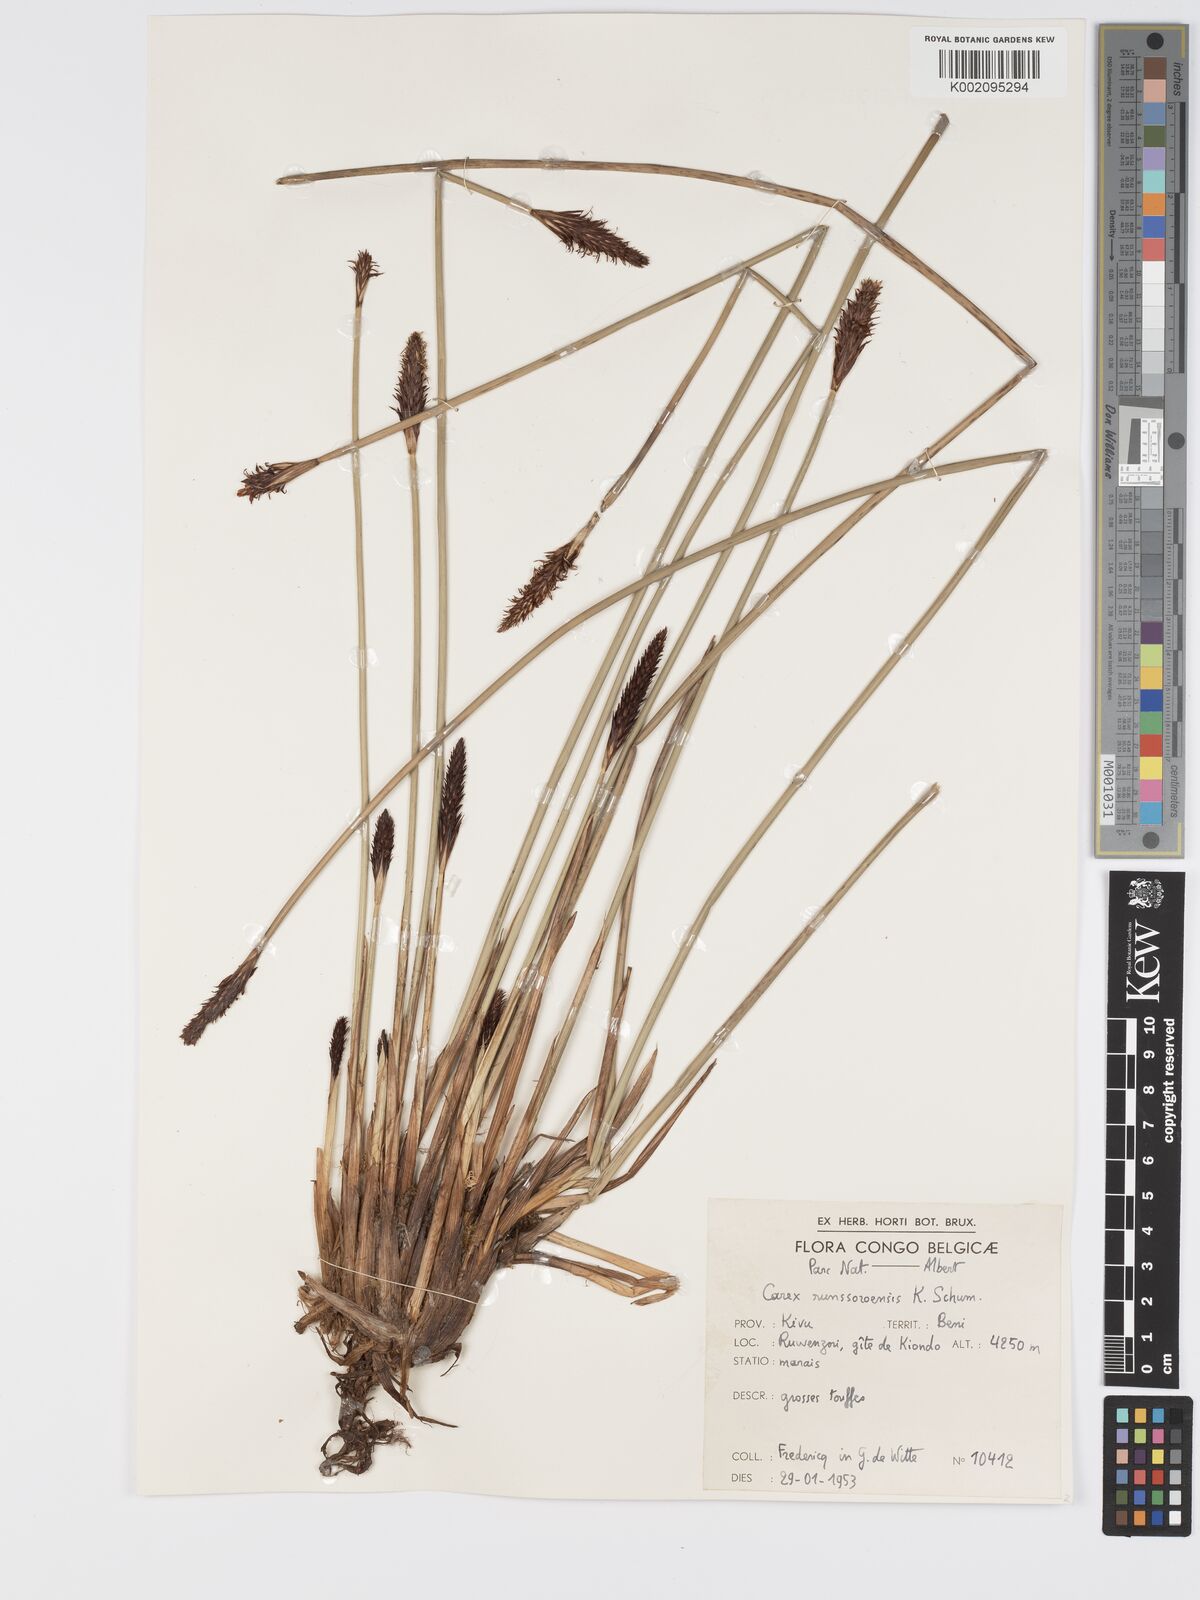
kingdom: Plantae
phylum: Tracheophyta
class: Liliopsida
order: Poales
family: Cyperaceae
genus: Carex
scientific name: Carex runssoroensis
